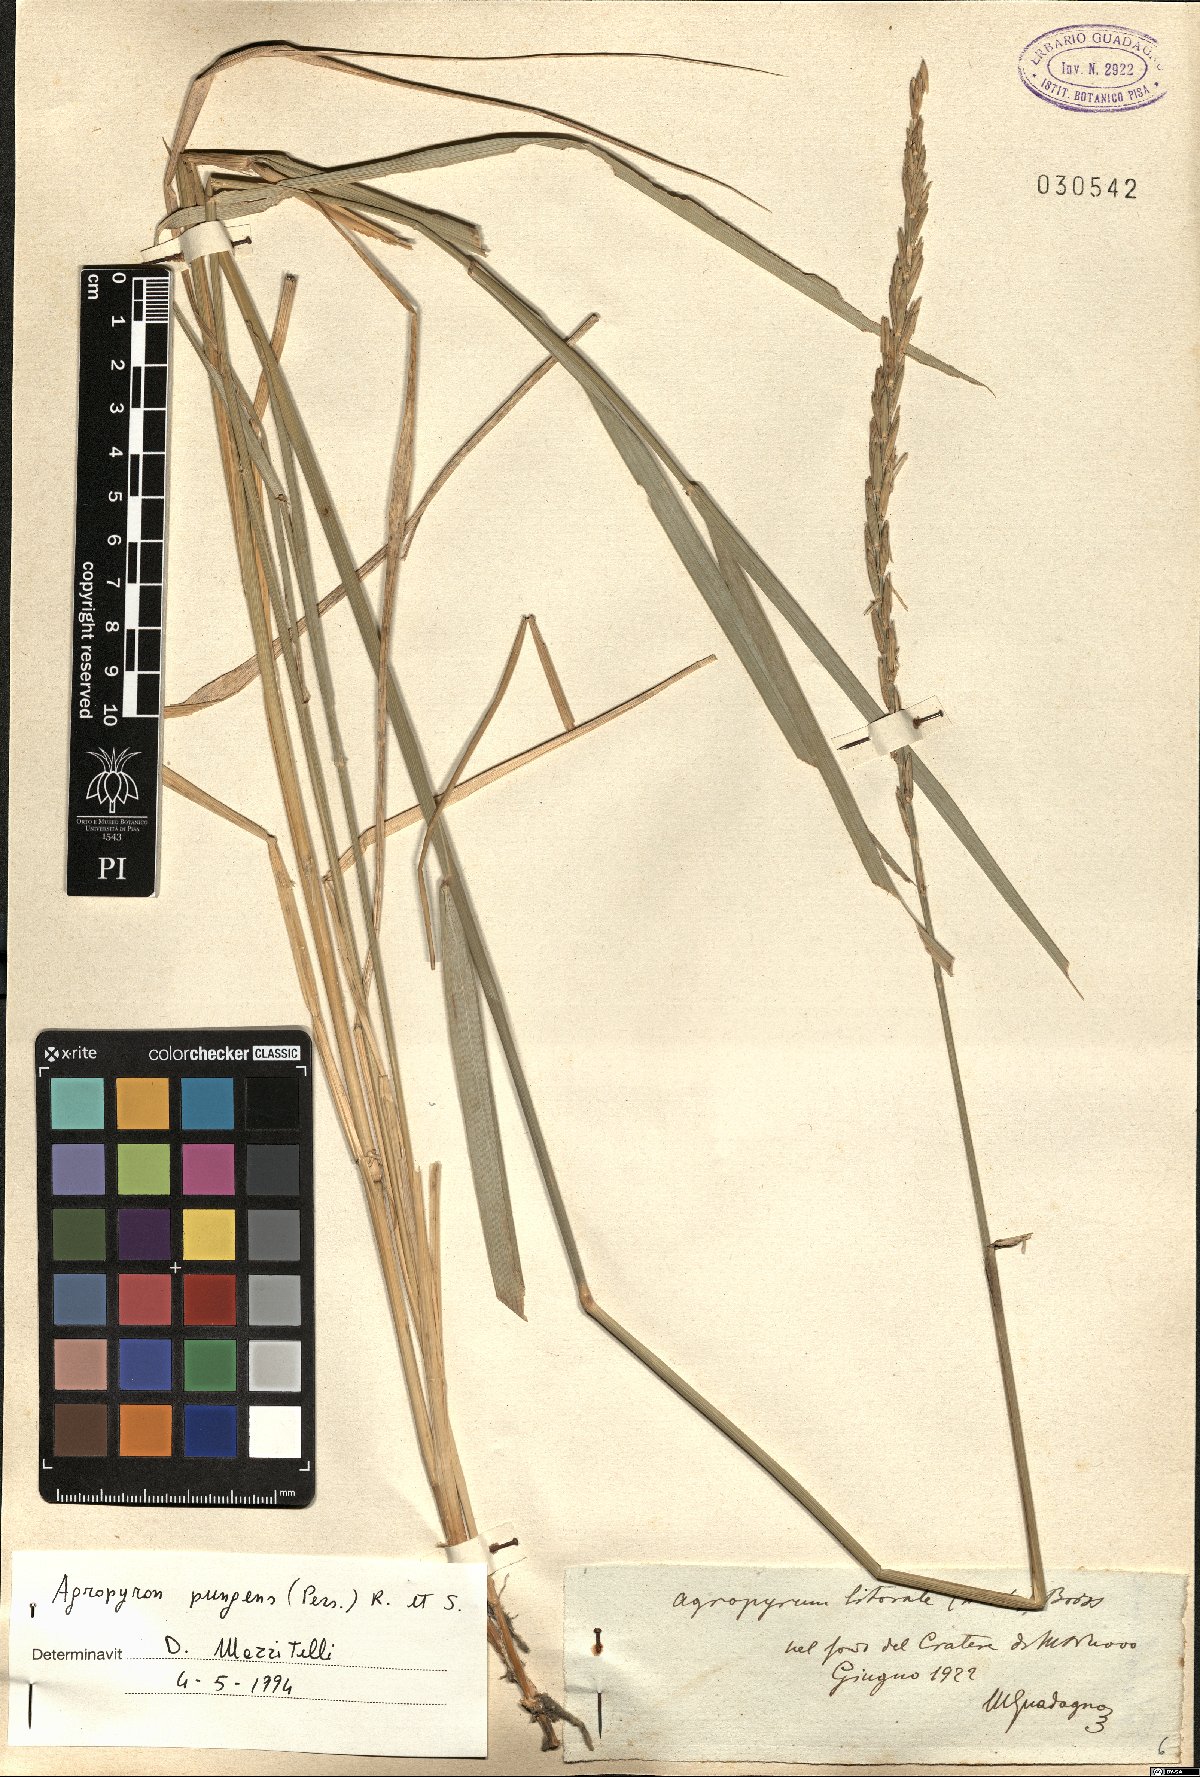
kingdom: Plantae
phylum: Tracheophyta
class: Liliopsida
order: Poales
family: Poaceae
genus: Elymus
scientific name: Elymus pungens
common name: Sea couch
